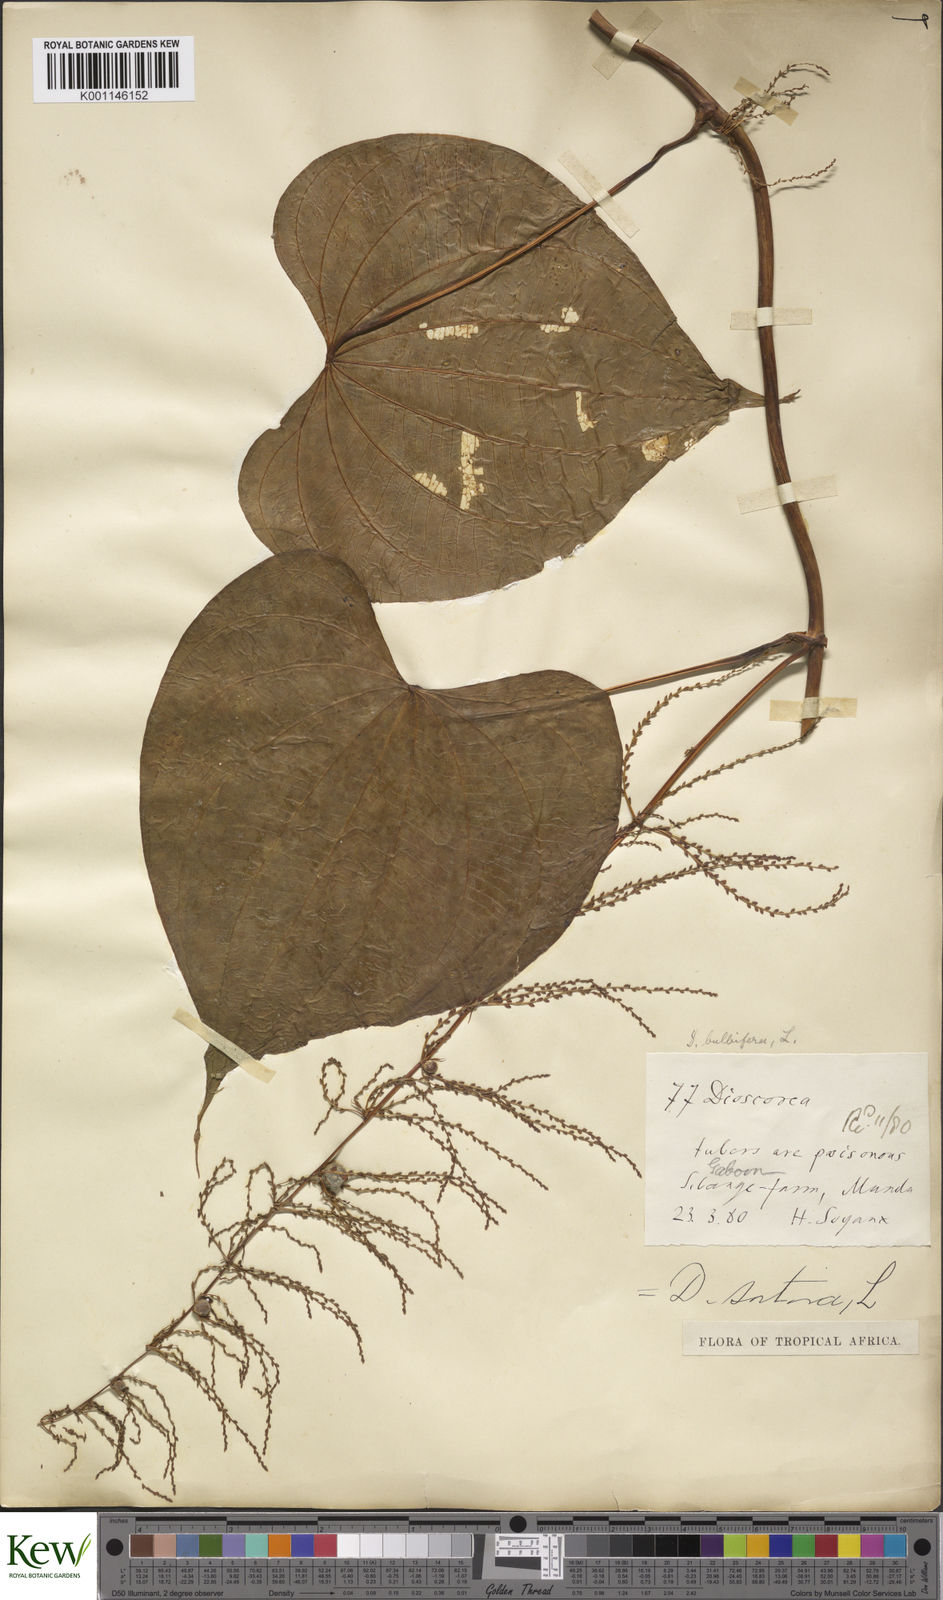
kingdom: Plantae
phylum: Tracheophyta
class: Liliopsida
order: Dioscoreales
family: Dioscoreaceae
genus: Dioscorea
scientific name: Dioscorea bulbifera
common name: Air yam
